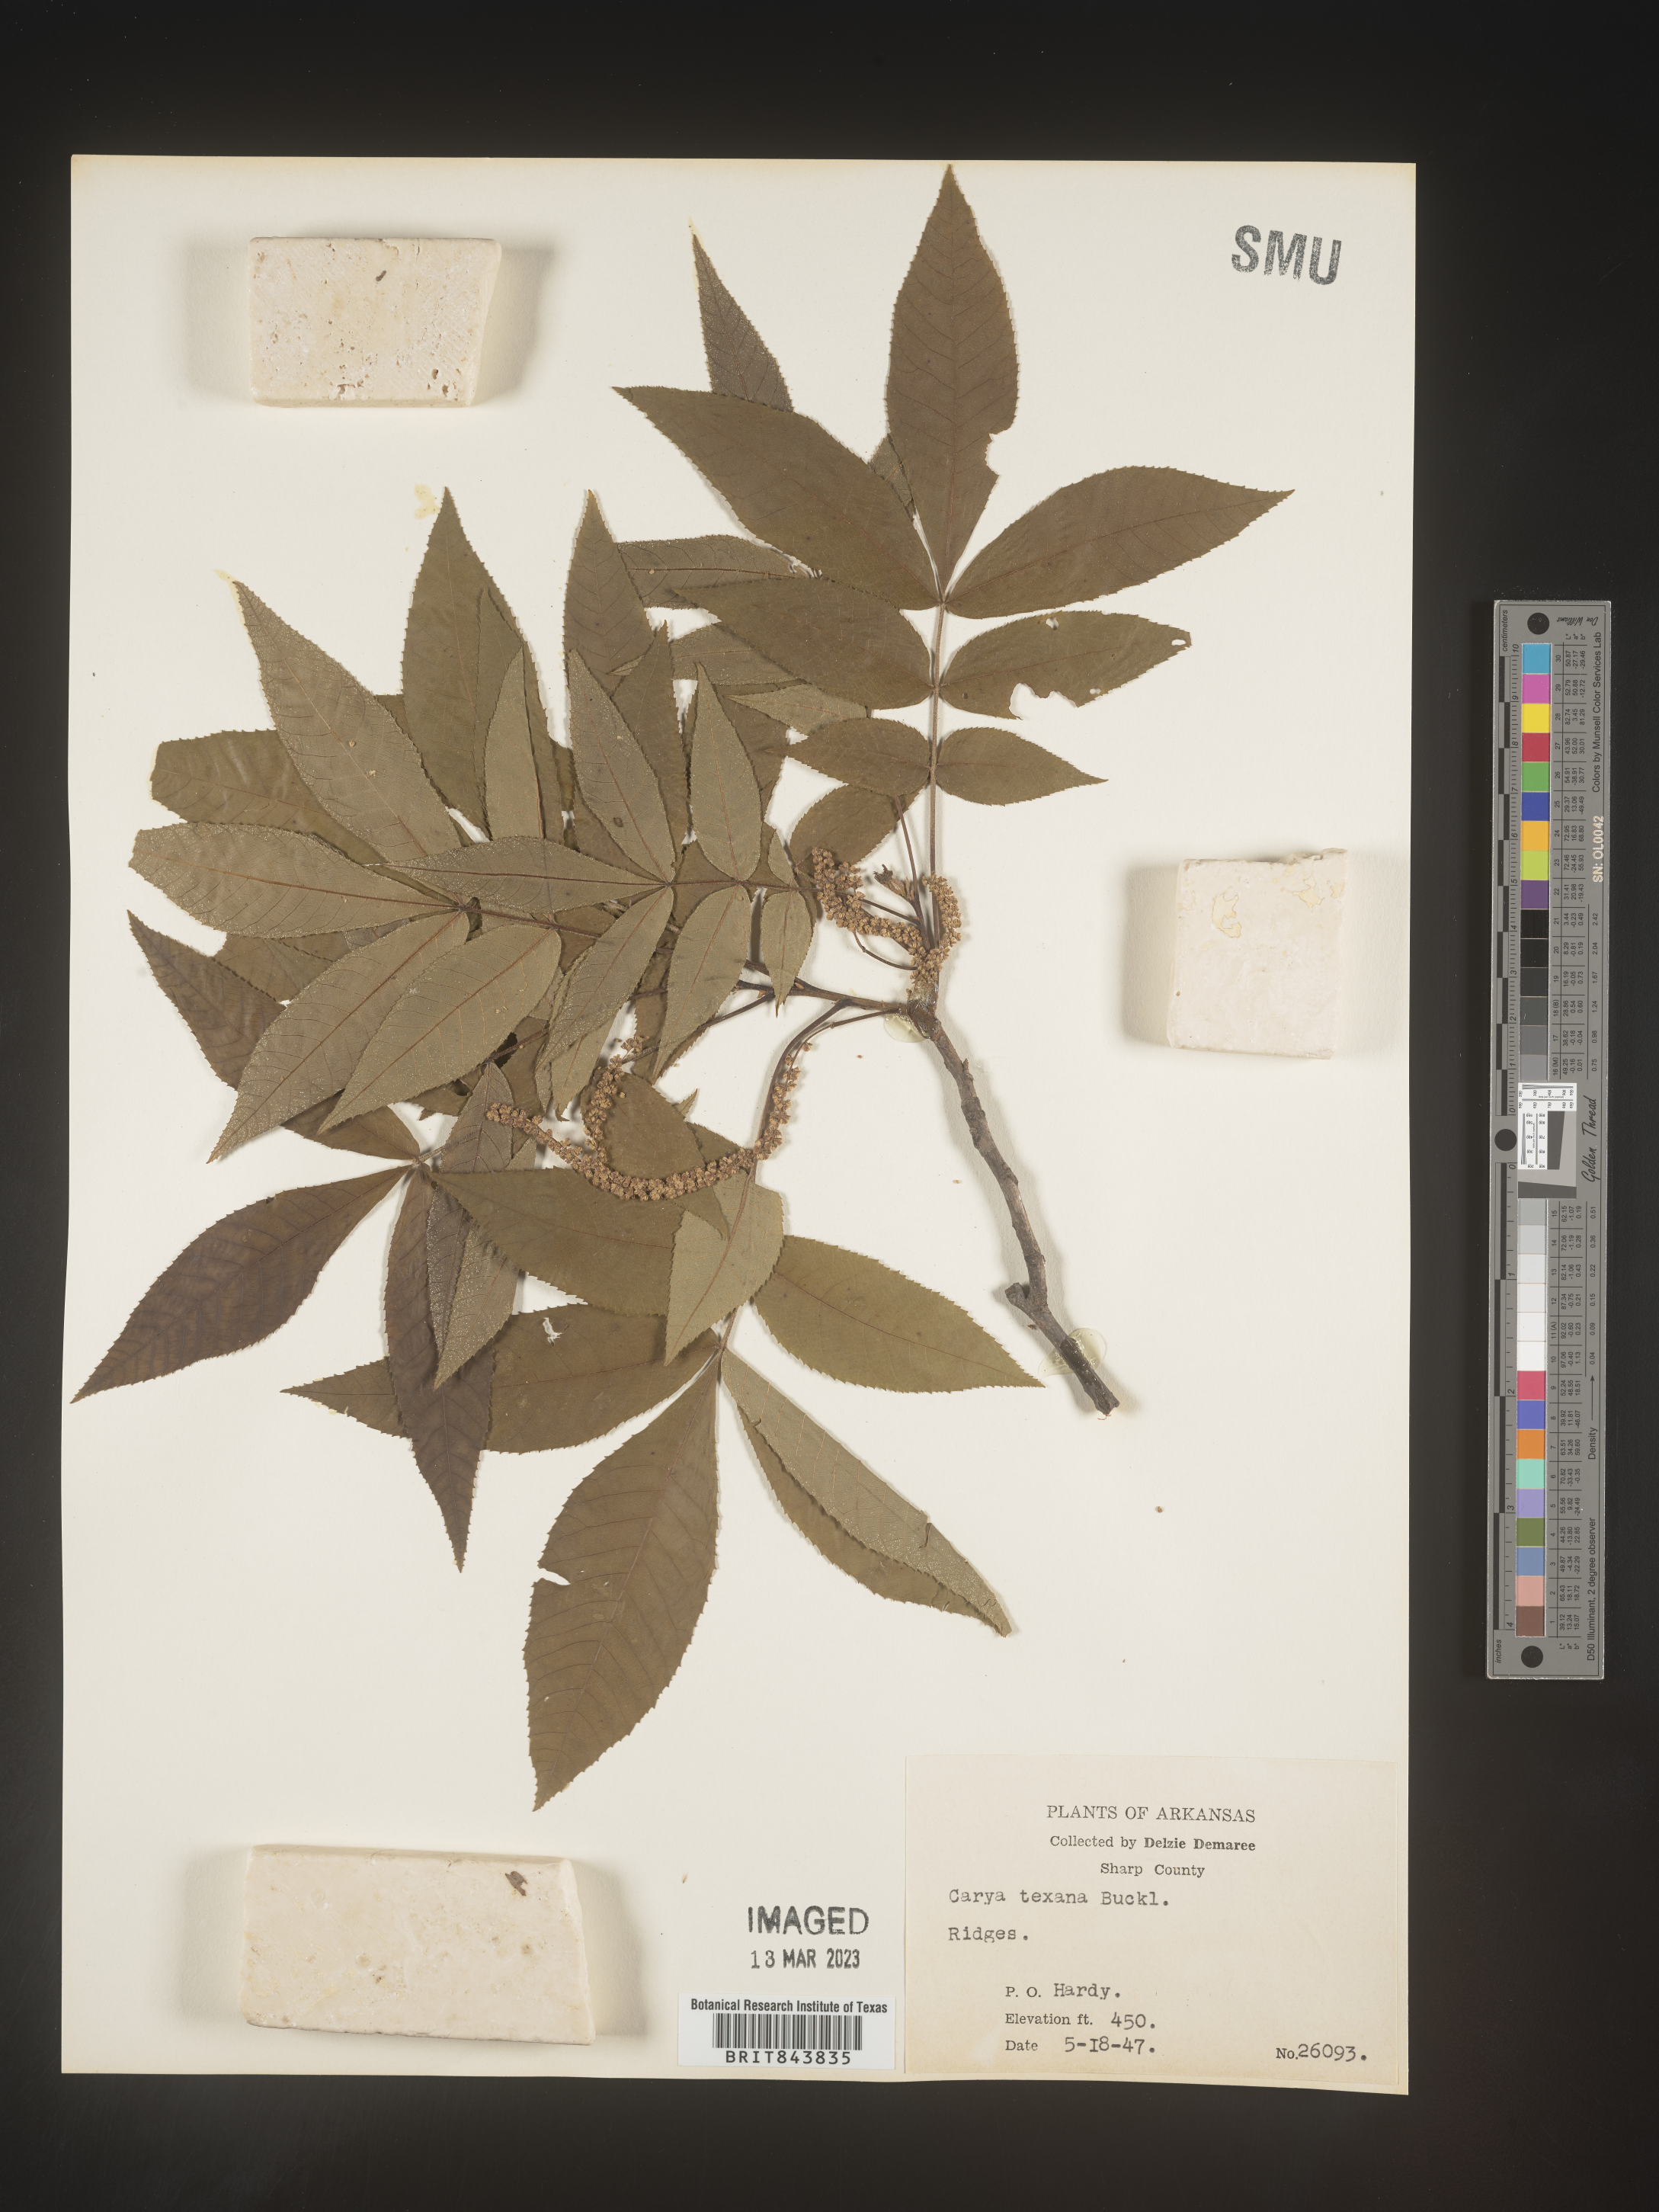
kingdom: Plantae
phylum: Tracheophyta
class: Magnoliopsida
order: Fagales
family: Juglandaceae
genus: Carya
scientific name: Carya texana
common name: Black hickory
